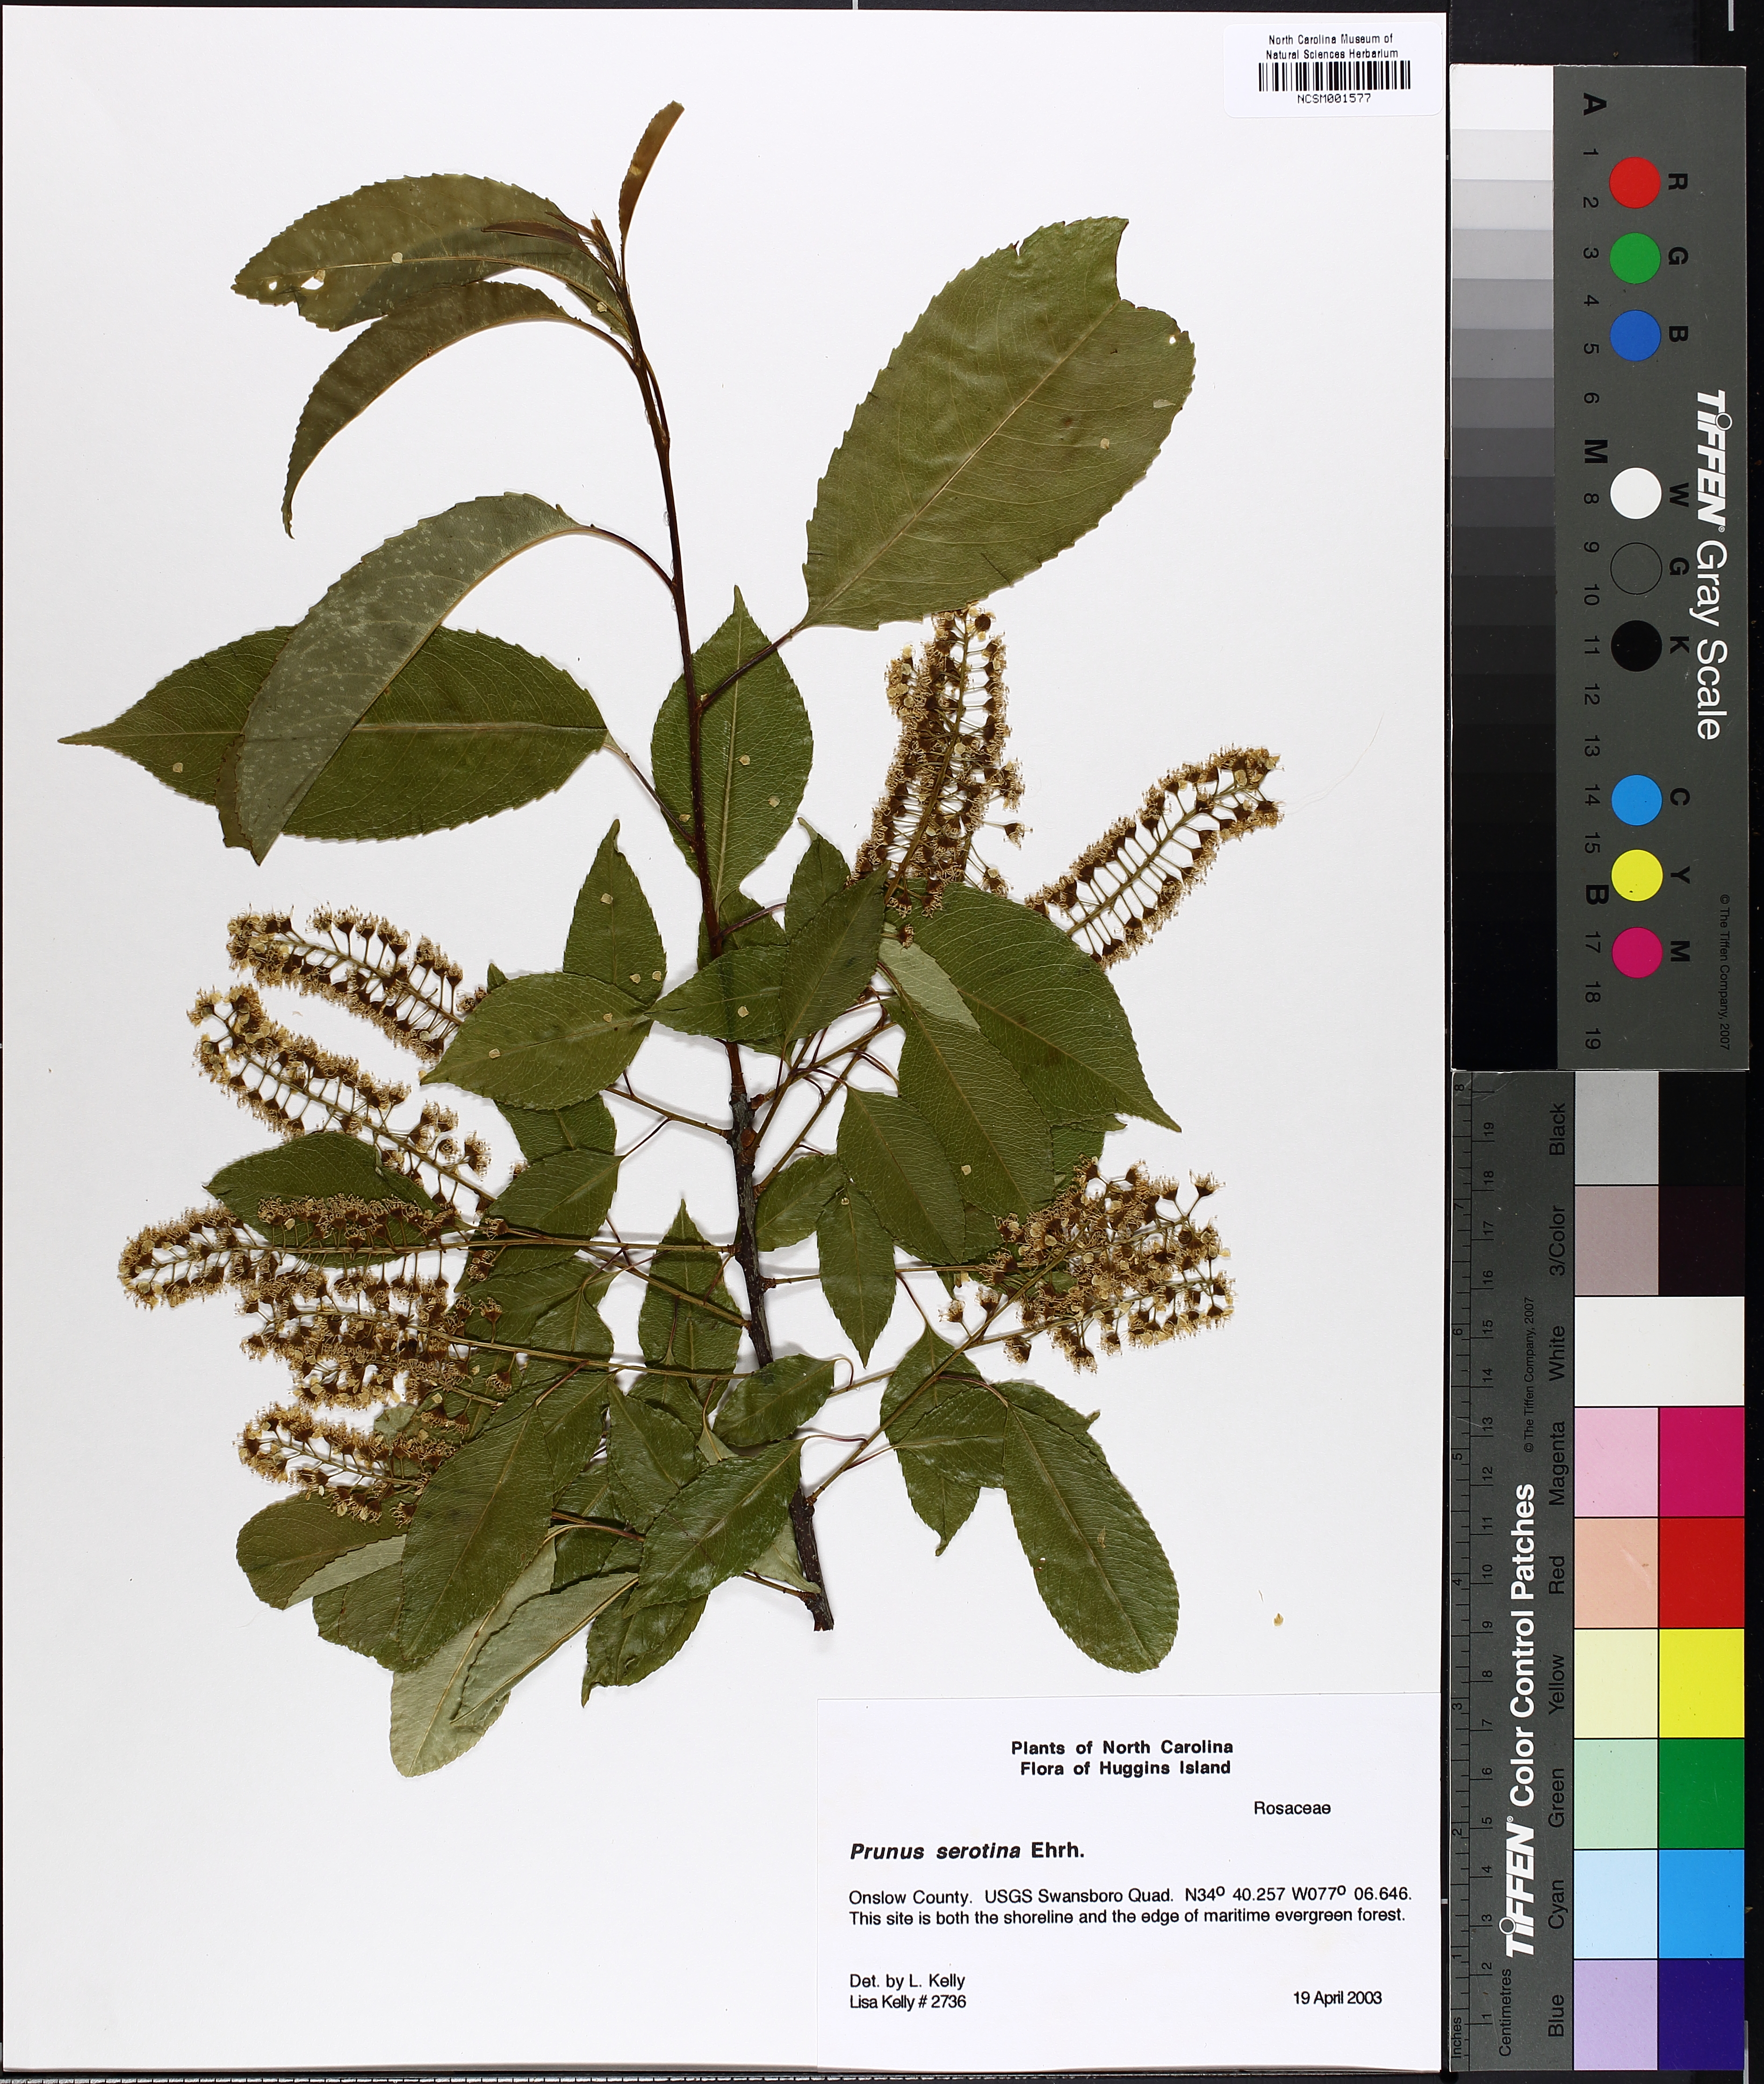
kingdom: Plantae
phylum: Tracheophyta
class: Magnoliopsida
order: Rosales
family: Rosaceae
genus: Prunus
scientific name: Prunus serotina
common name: Black cherry
